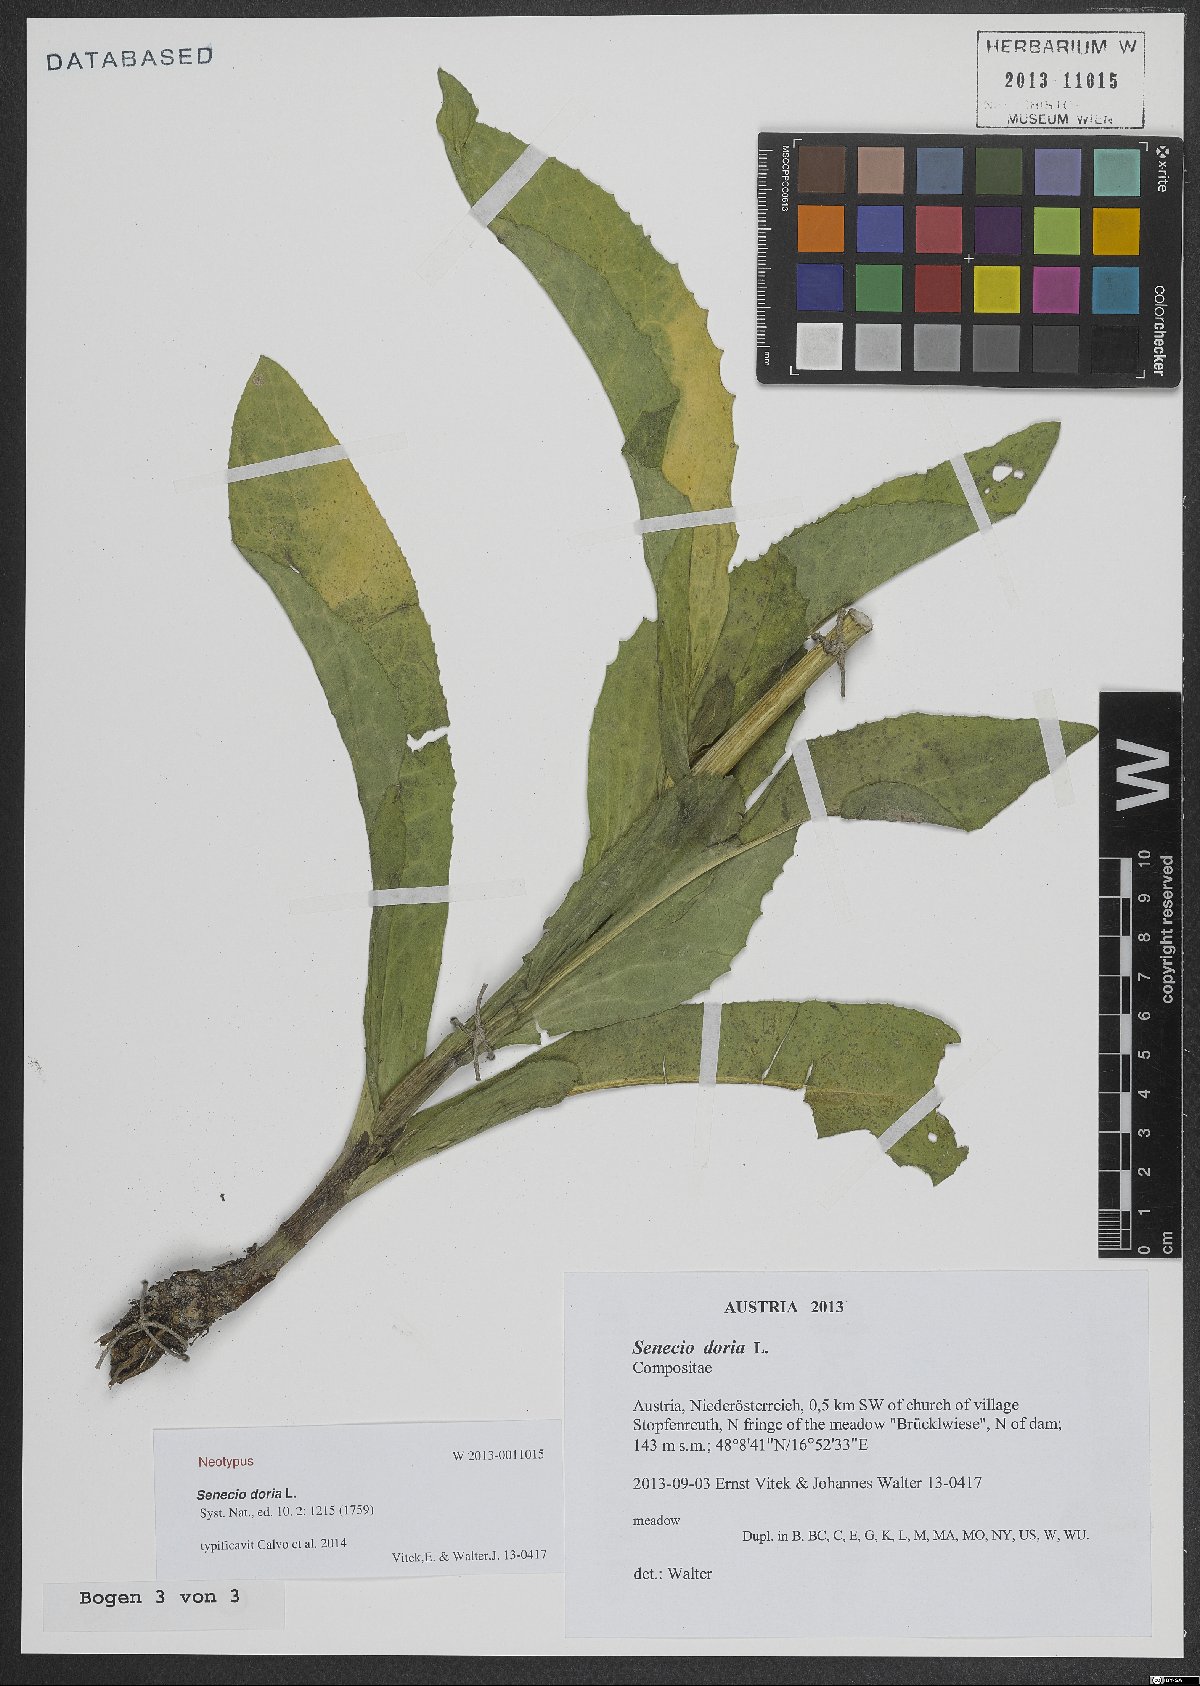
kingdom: Plantae
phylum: Tracheophyta
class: Magnoliopsida
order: Asterales
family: Asteraceae
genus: Senecio
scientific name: Senecio doria
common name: Golden ragwort
